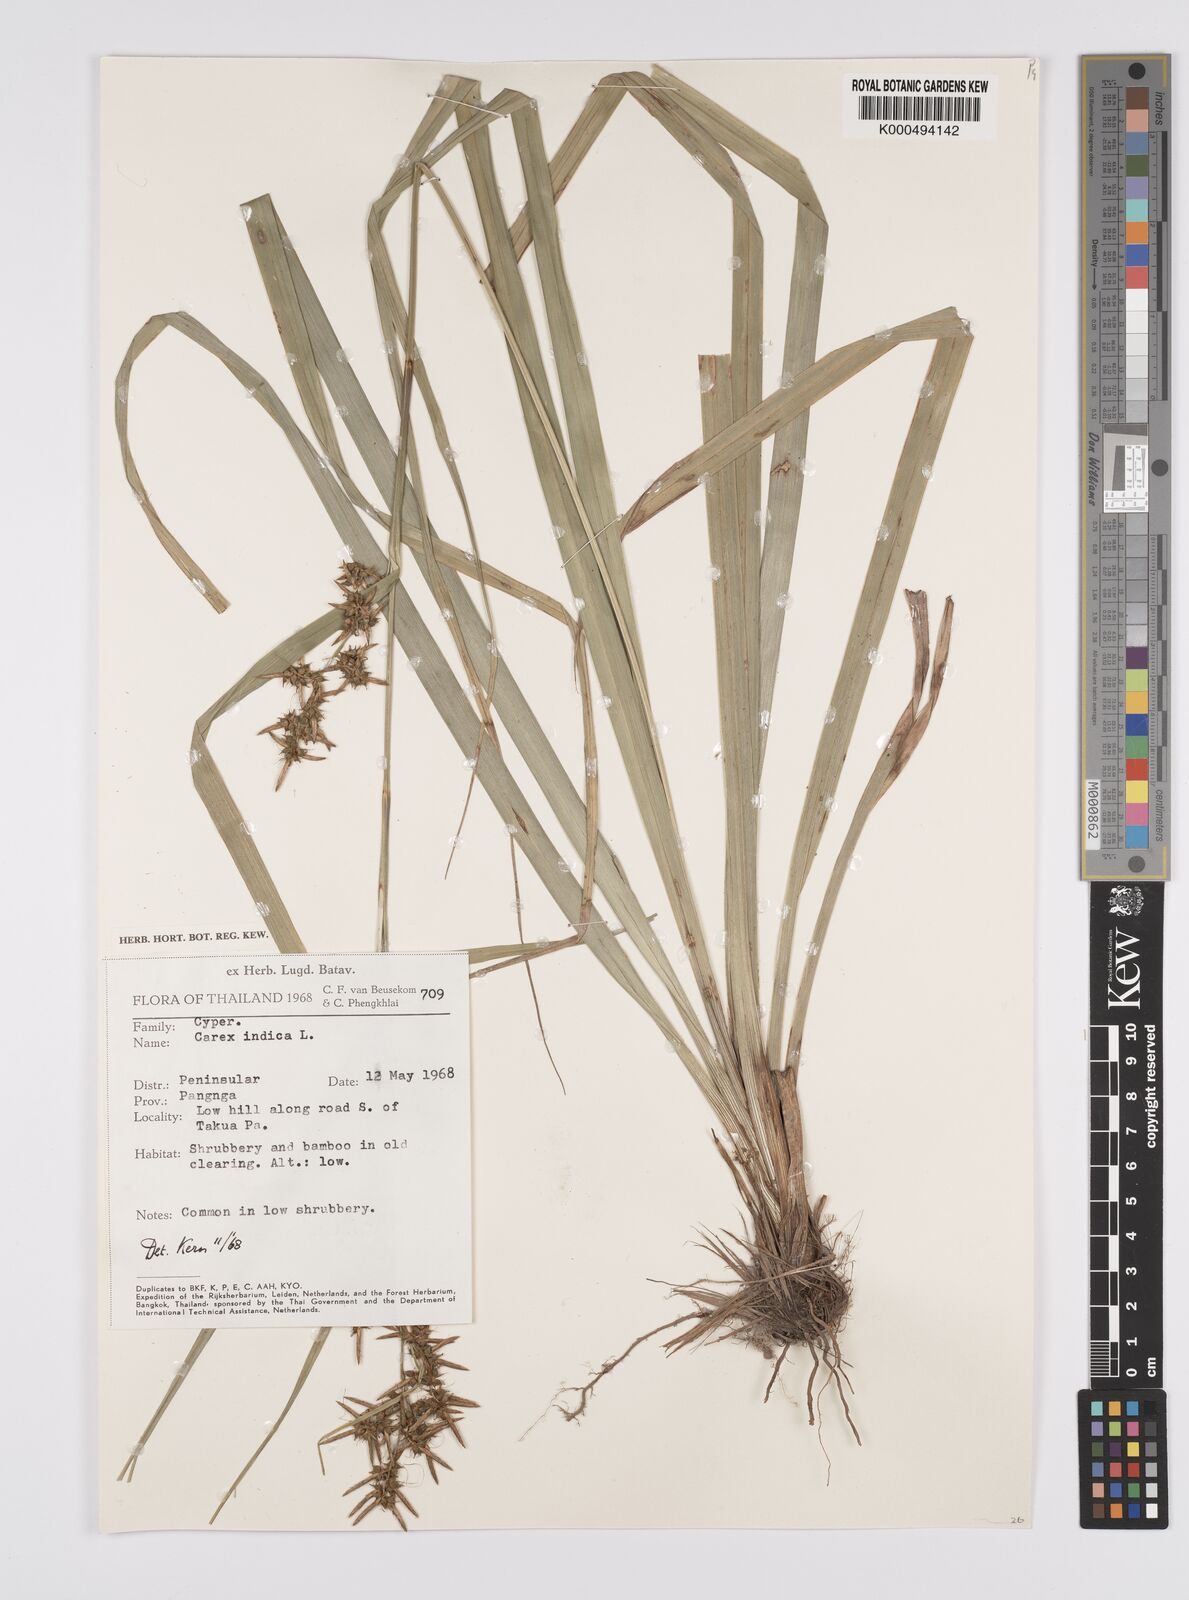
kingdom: Plantae
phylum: Tracheophyta
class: Liliopsida
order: Poales
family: Cyperaceae
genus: Carex
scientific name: Carex indica
